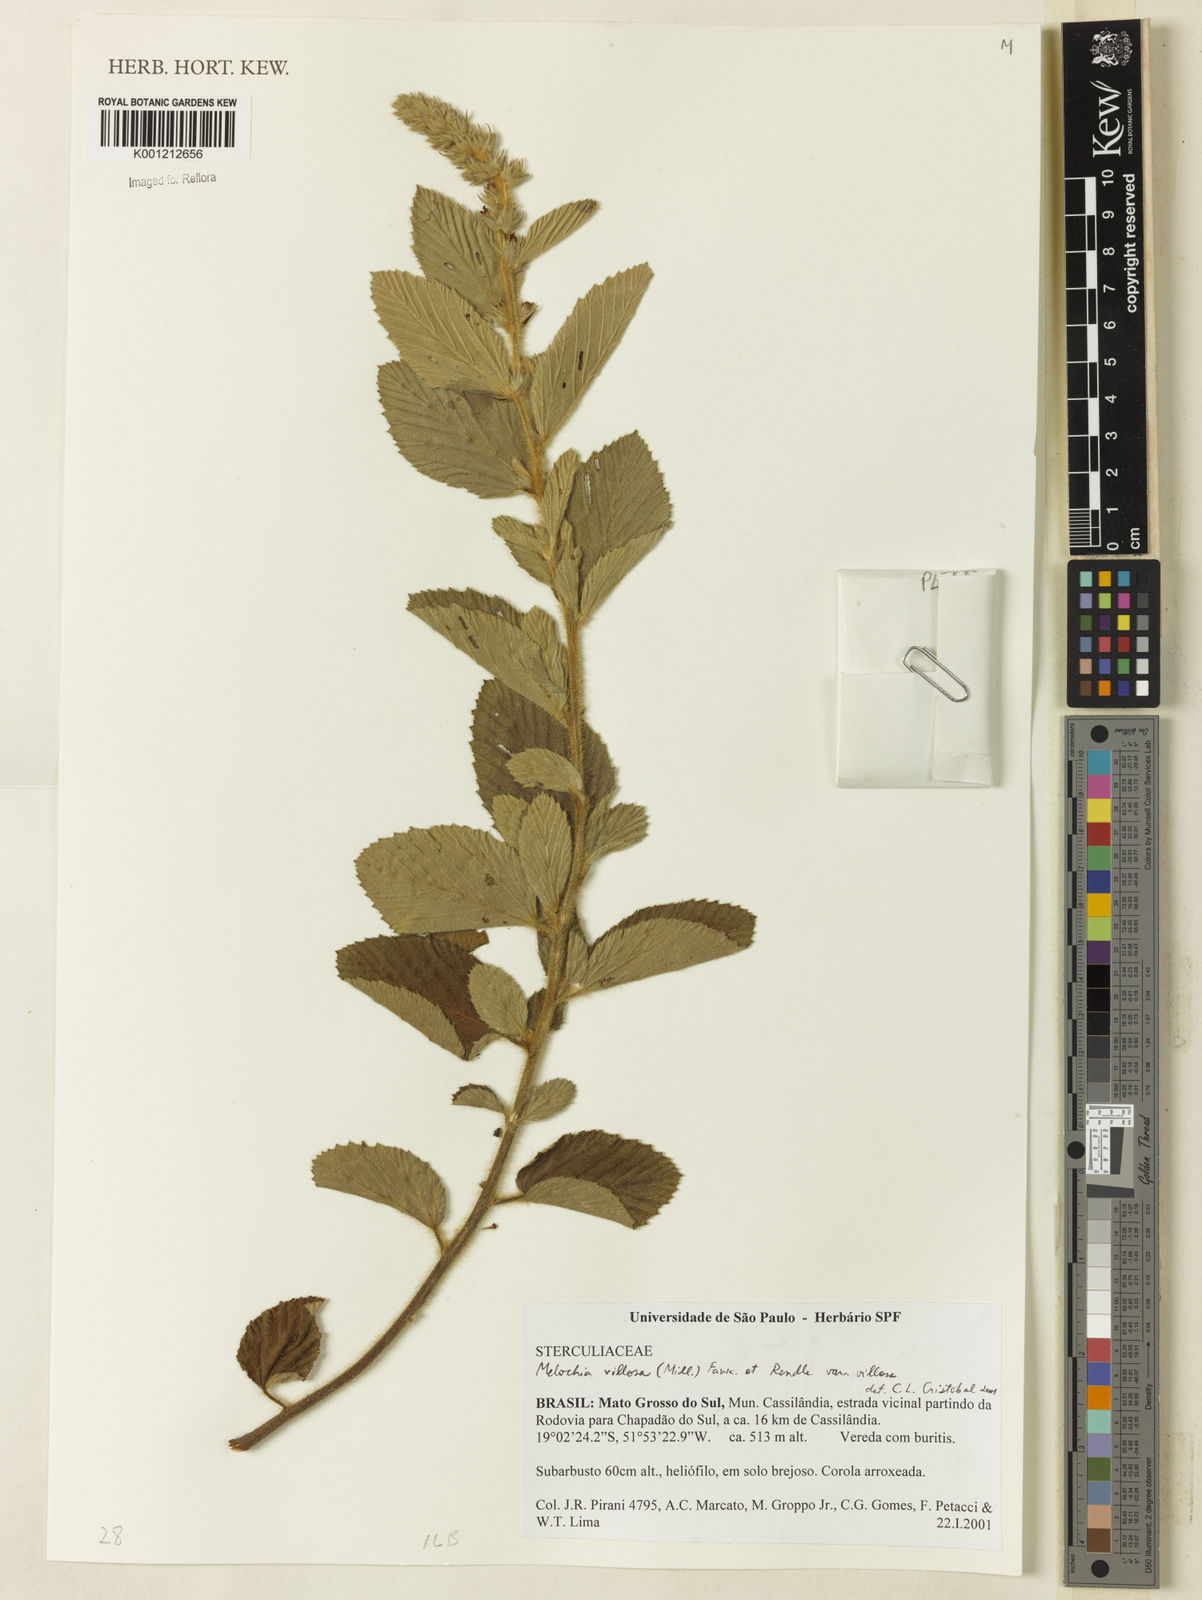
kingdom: Plantae
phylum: Tracheophyta
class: Magnoliopsida
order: Malvales
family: Malvaceae
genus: Melochia
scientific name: Melochia spicata
